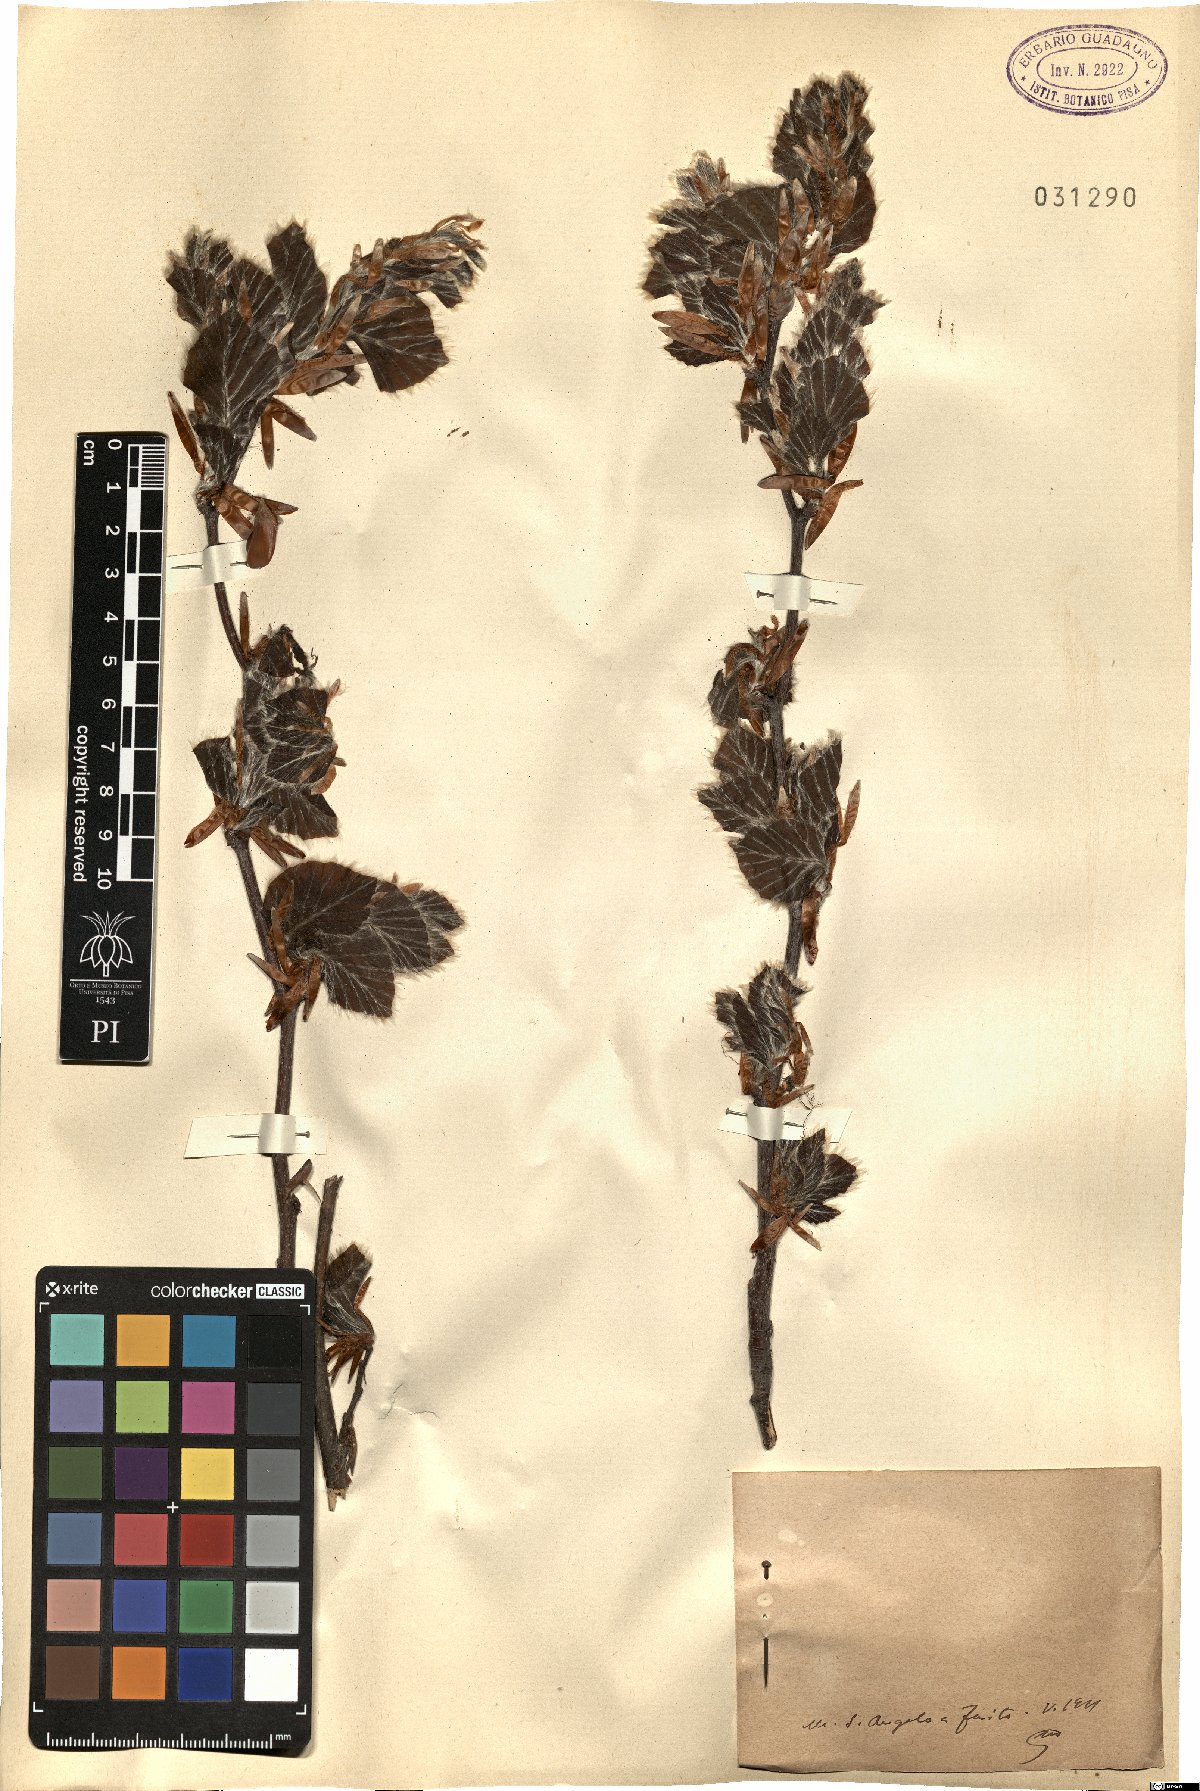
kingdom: Plantae
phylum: Tracheophyta
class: Magnoliopsida
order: Fagales
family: Fagaceae
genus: Fagus
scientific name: Fagus
